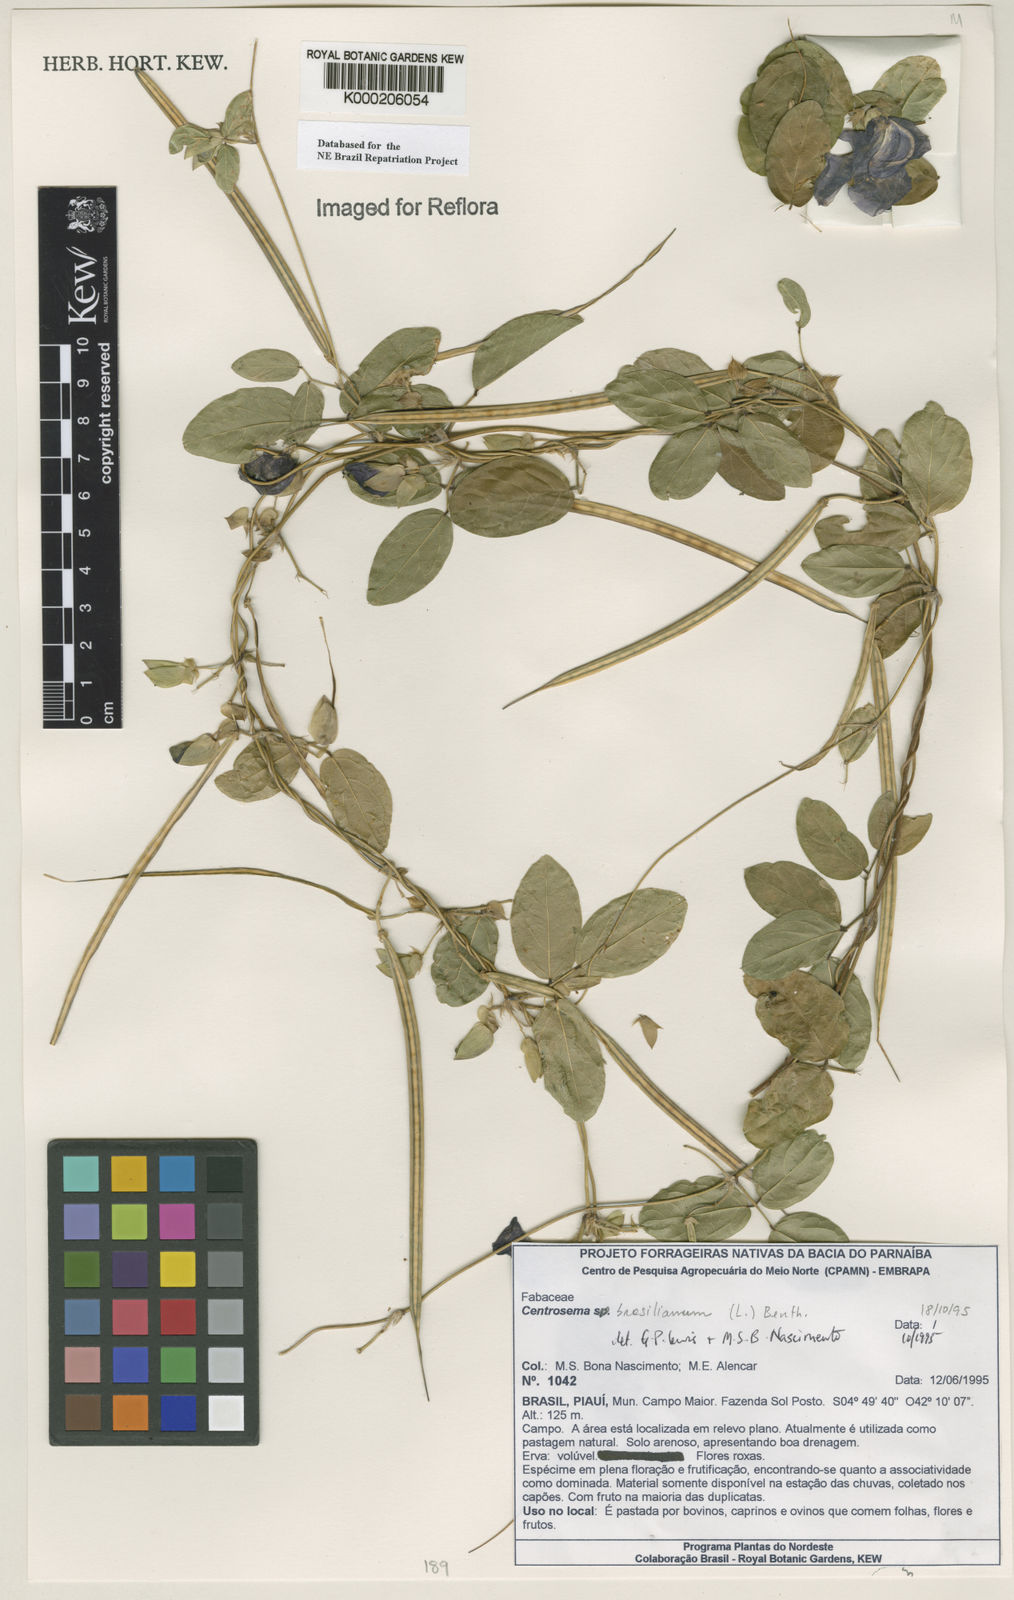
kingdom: Plantae
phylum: Tracheophyta
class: Magnoliopsida
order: Fabales
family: Fabaceae
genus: Centrosema
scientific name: Centrosema brasilianum
